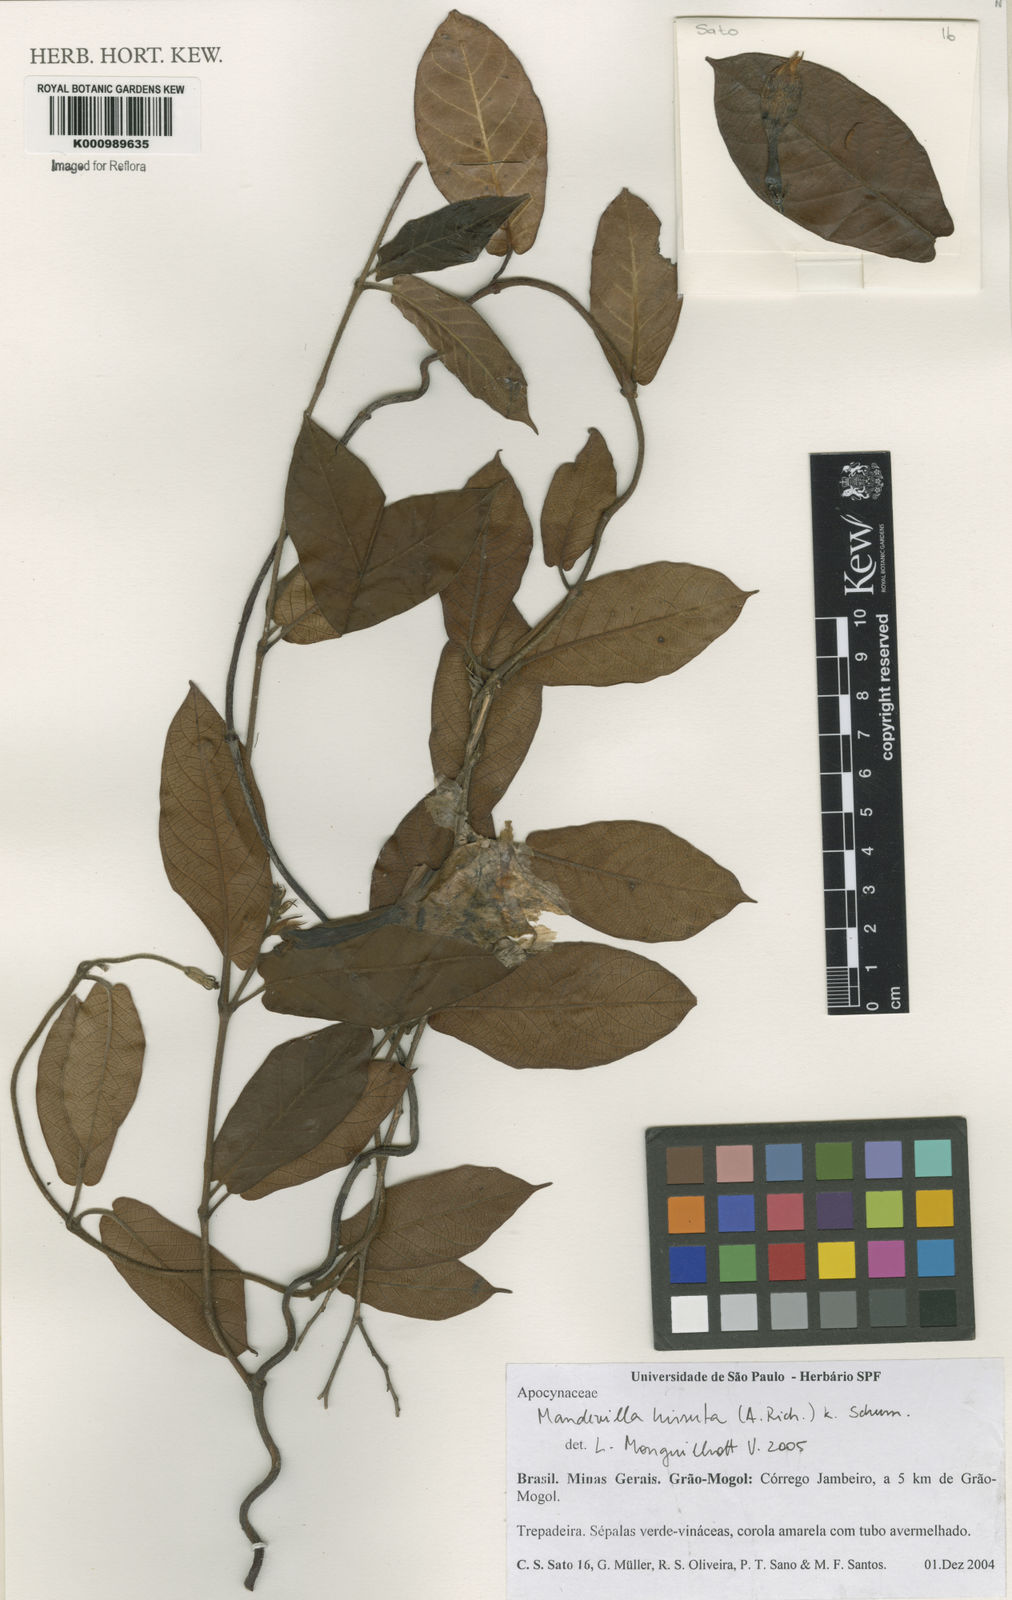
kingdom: Plantae
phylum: Tracheophyta
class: Magnoliopsida
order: Gentianales
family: Apocynaceae
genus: Mandevilla
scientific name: Mandevilla hirsuta
